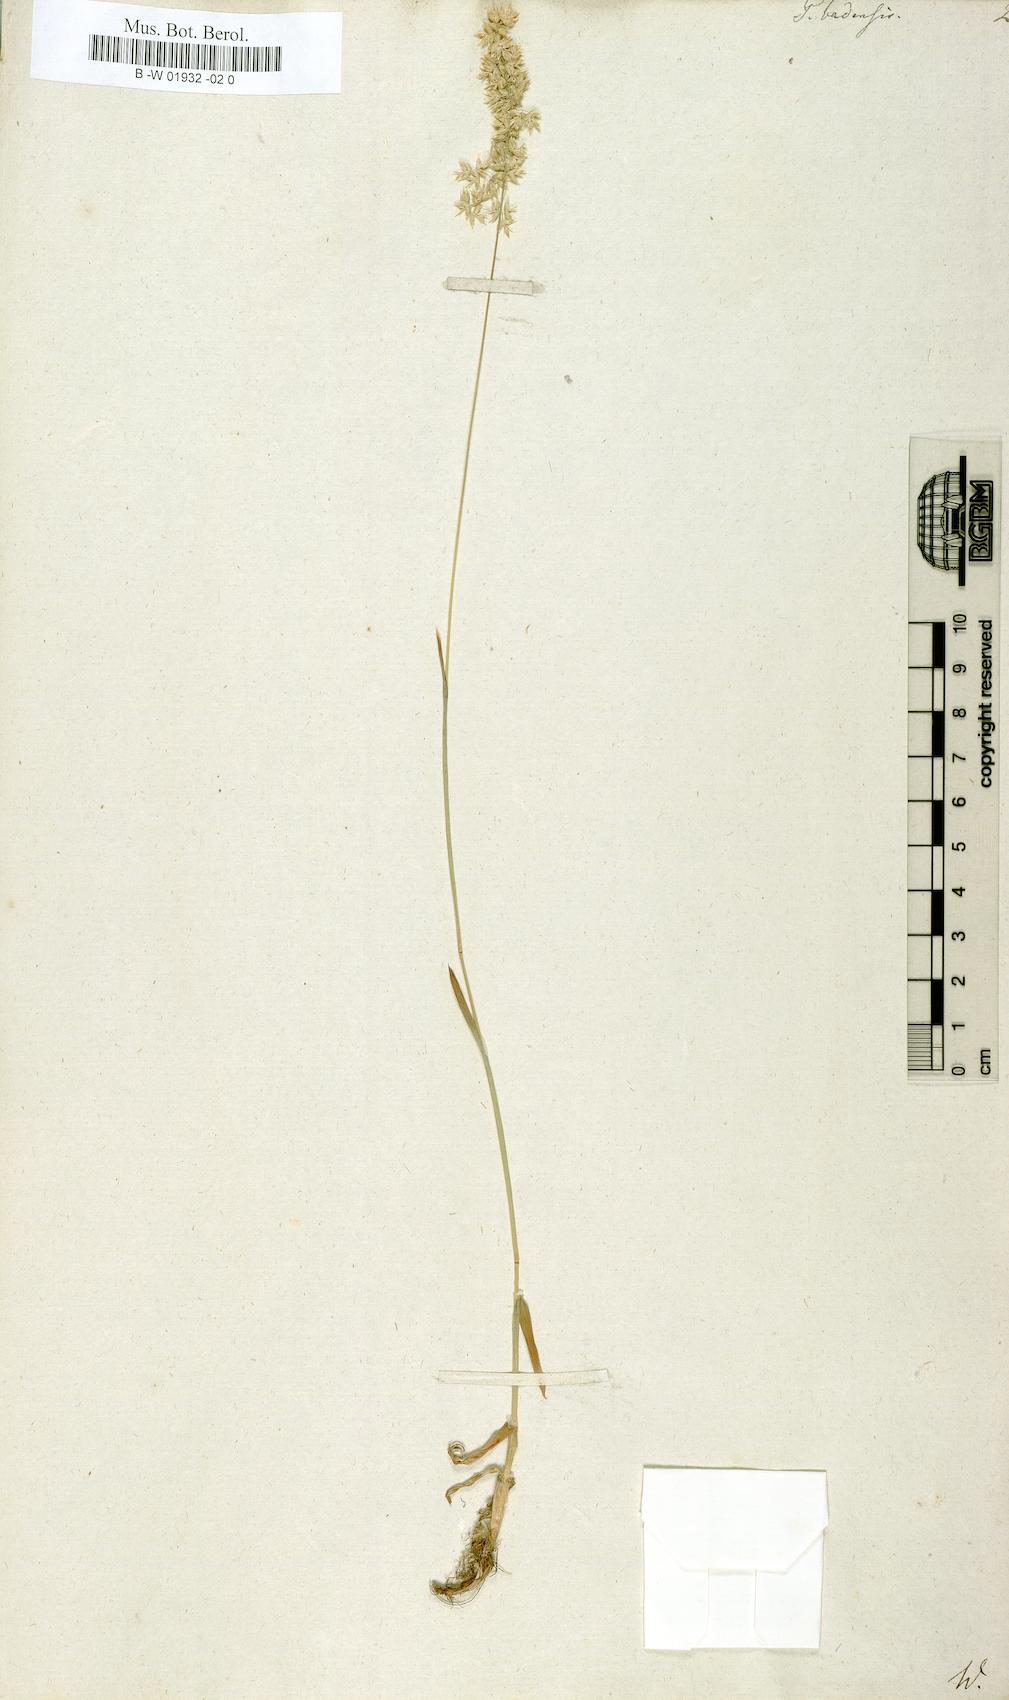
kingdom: Plantae
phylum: Tracheophyta
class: Liliopsida
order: Poales
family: Poaceae
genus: Poa
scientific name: Poa badensis
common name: Baden's bluegrass
